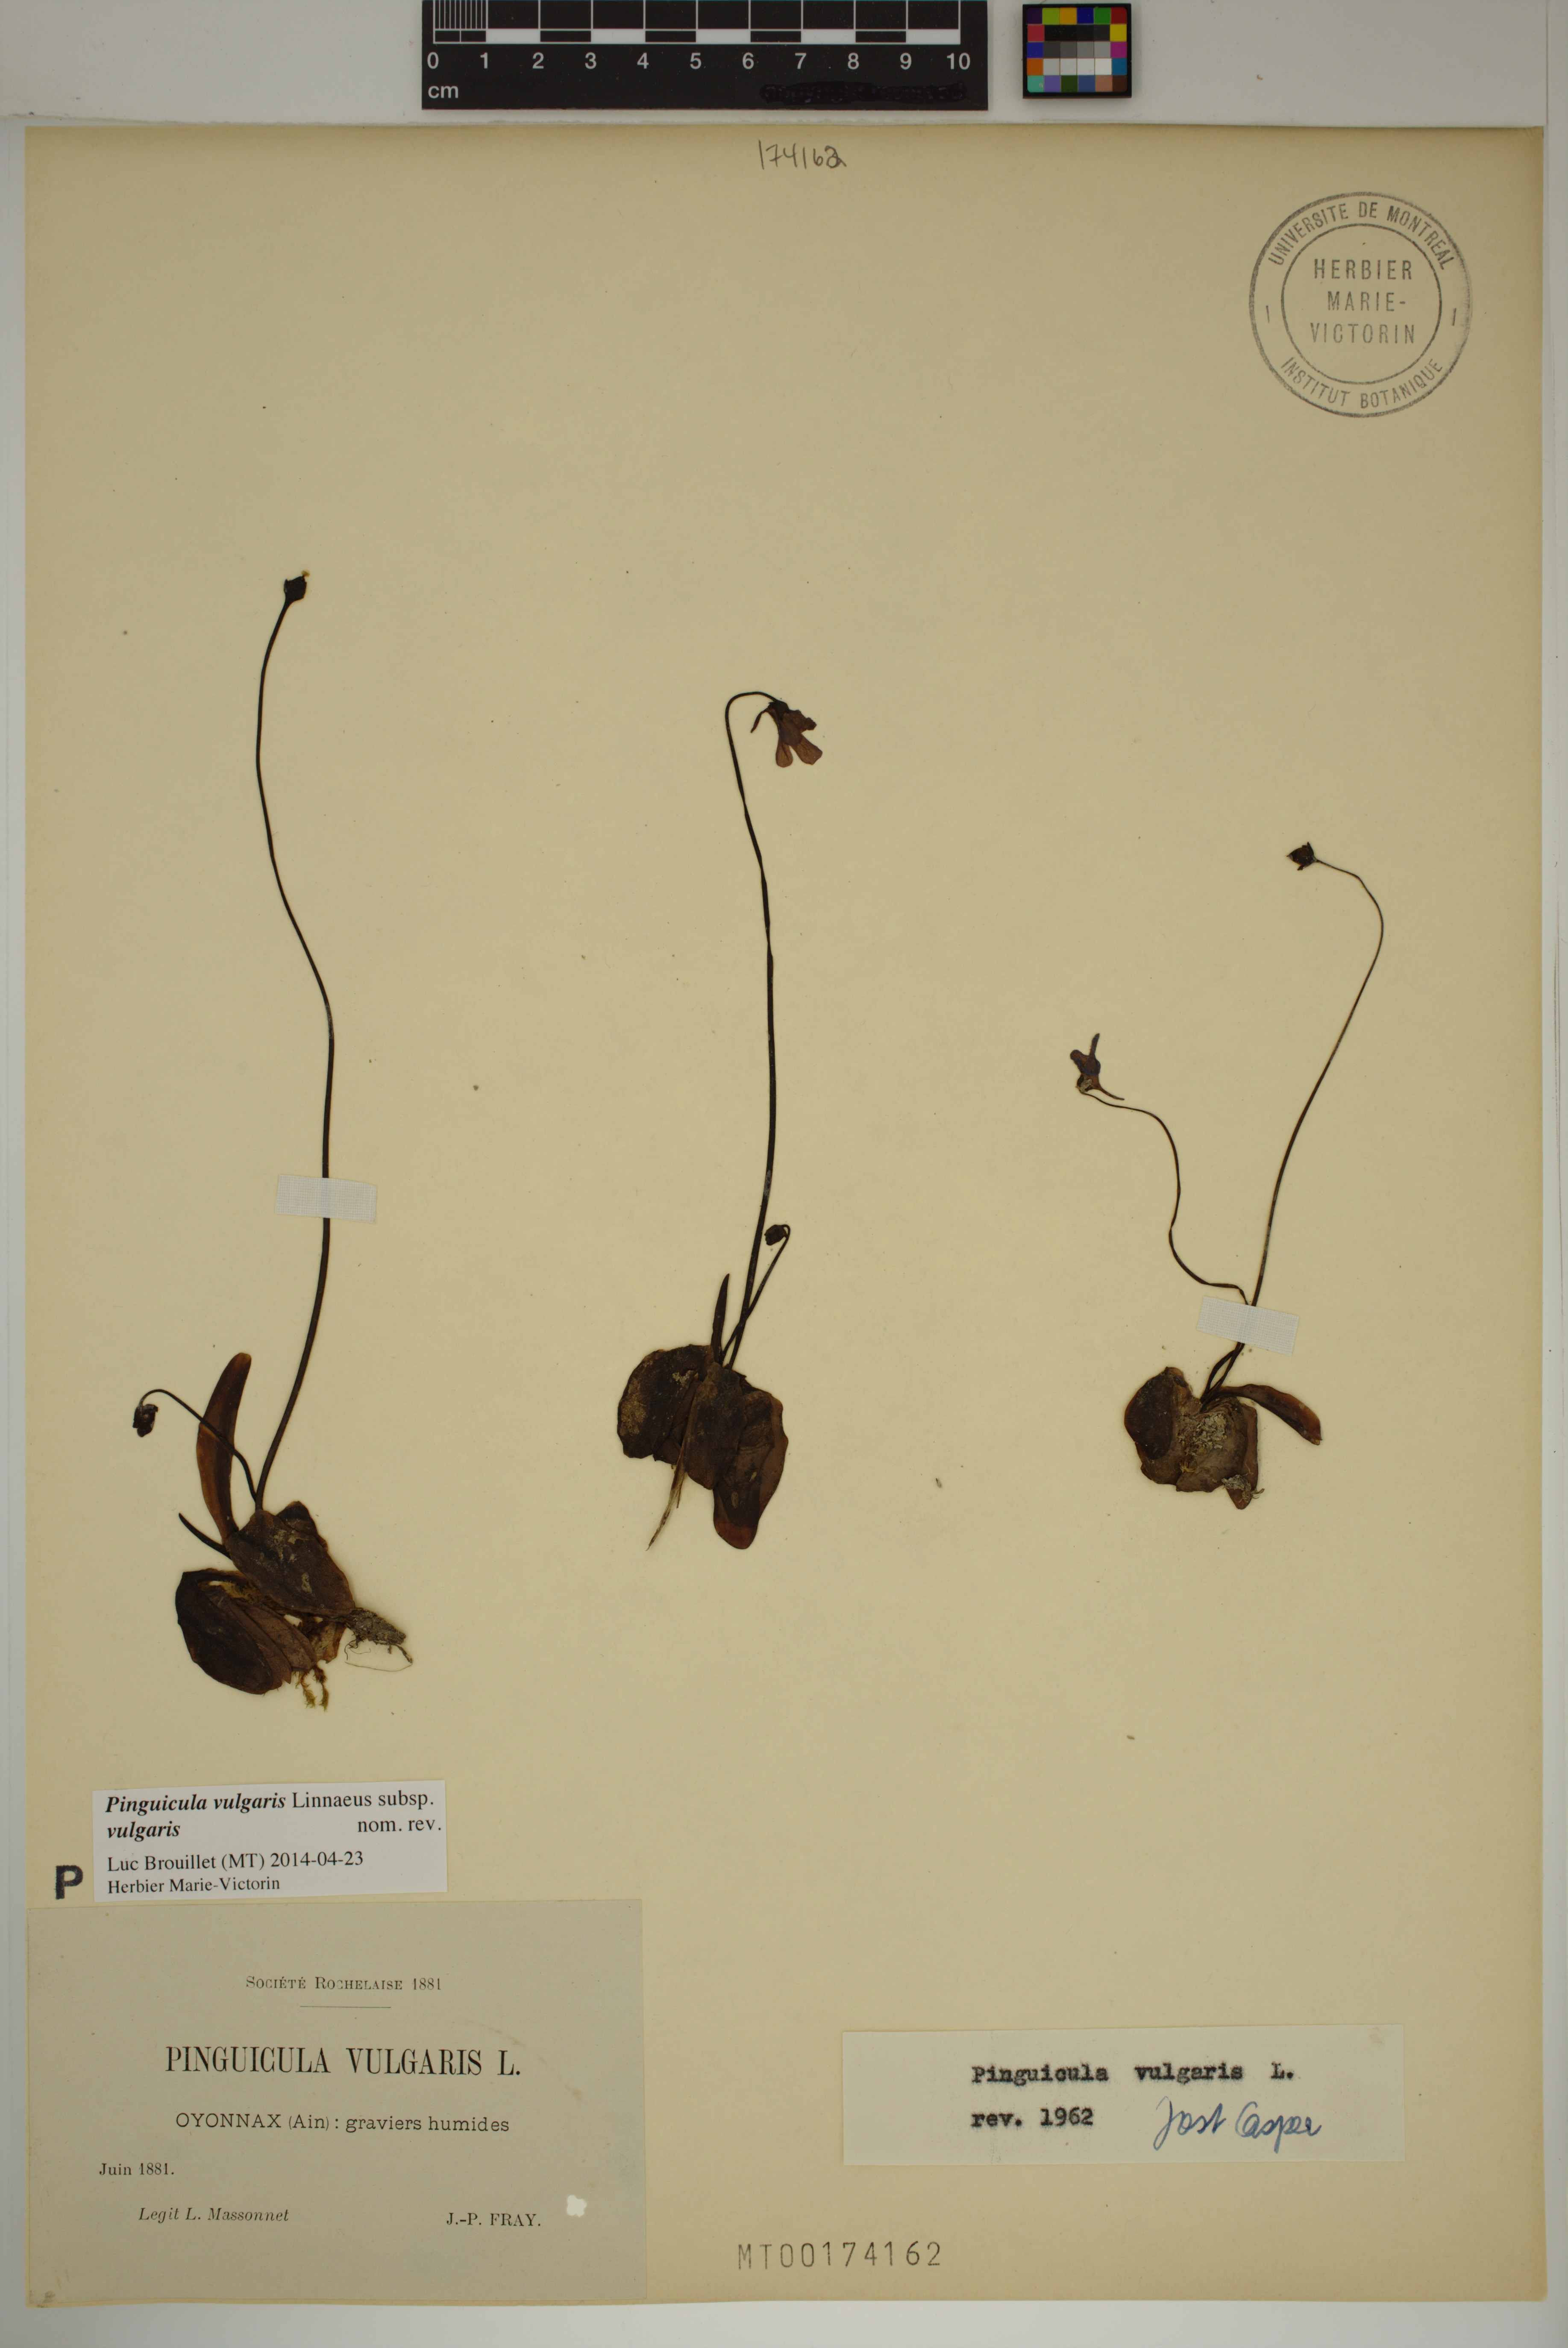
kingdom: Plantae
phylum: Tracheophyta
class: Magnoliopsida
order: Lamiales
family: Lentibulariaceae
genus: Pinguicula
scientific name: Pinguicula vulgaris
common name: Common butterwort
